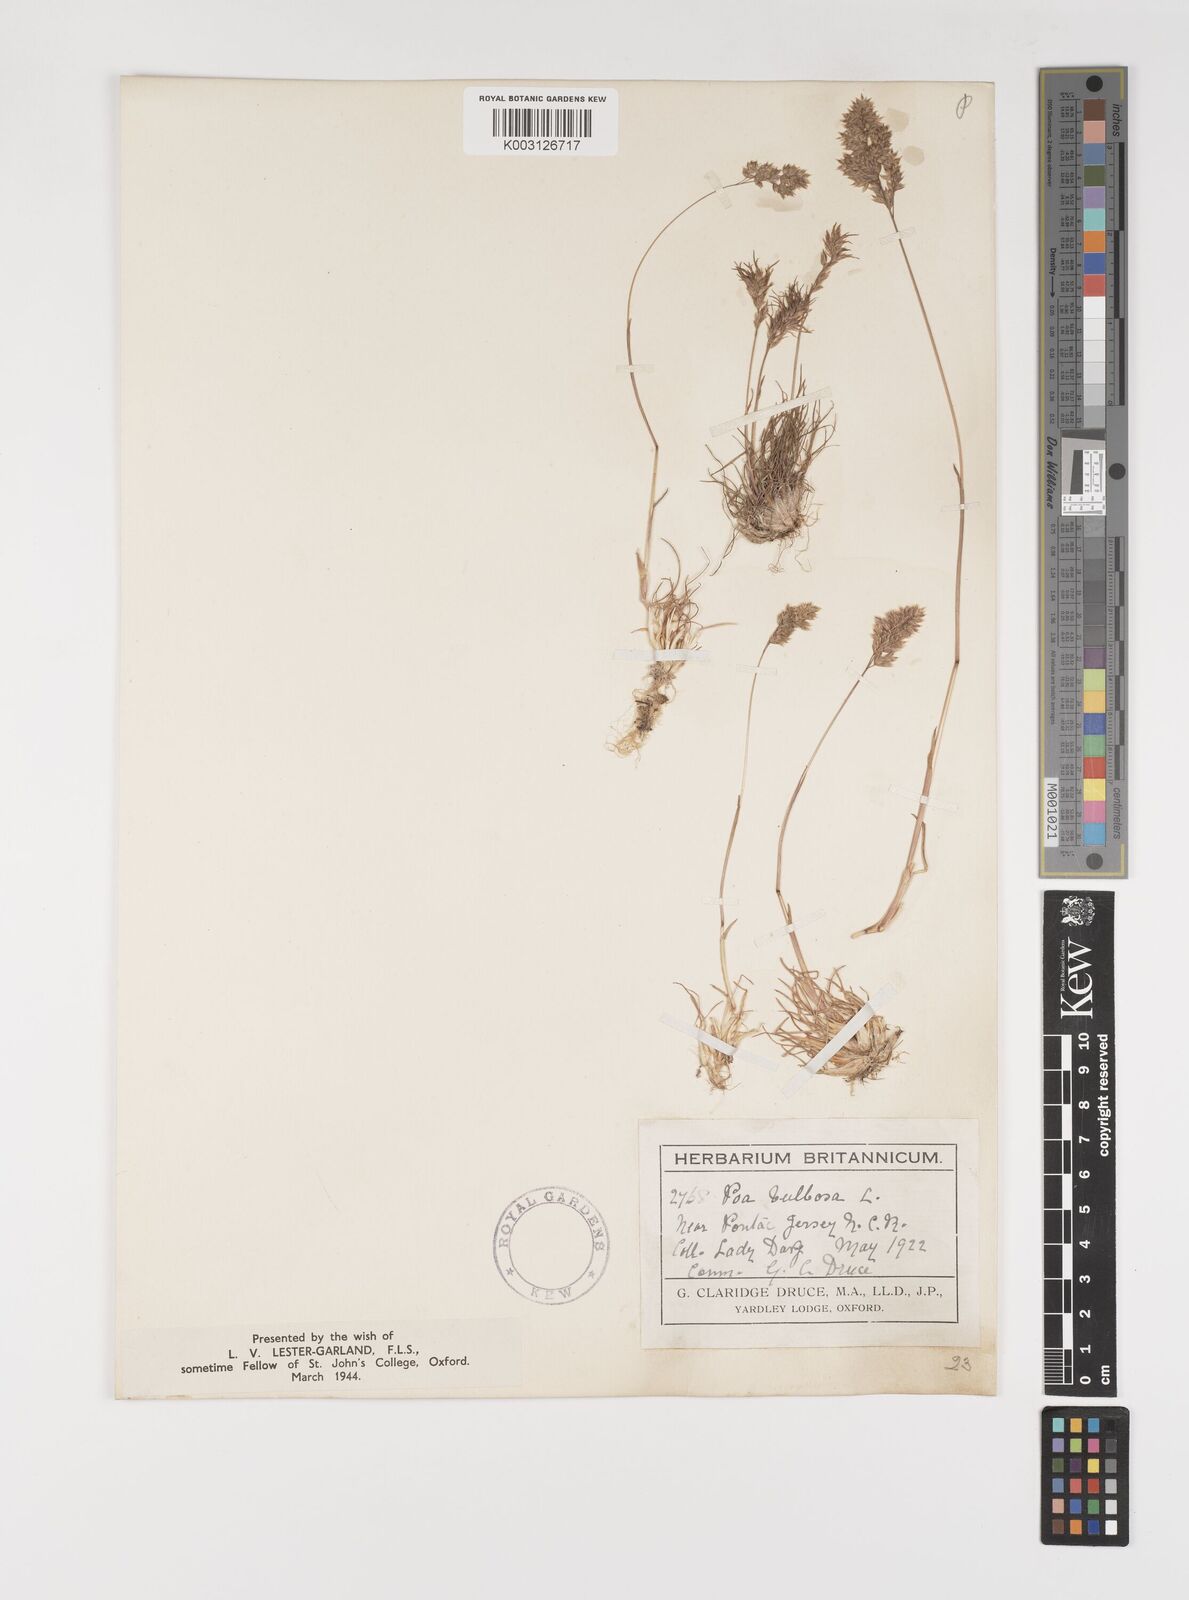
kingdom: Plantae
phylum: Tracheophyta
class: Liliopsida
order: Poales
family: Poaceae
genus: Poa
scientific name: Poa bulbosa
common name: Bulbous bluegrass
